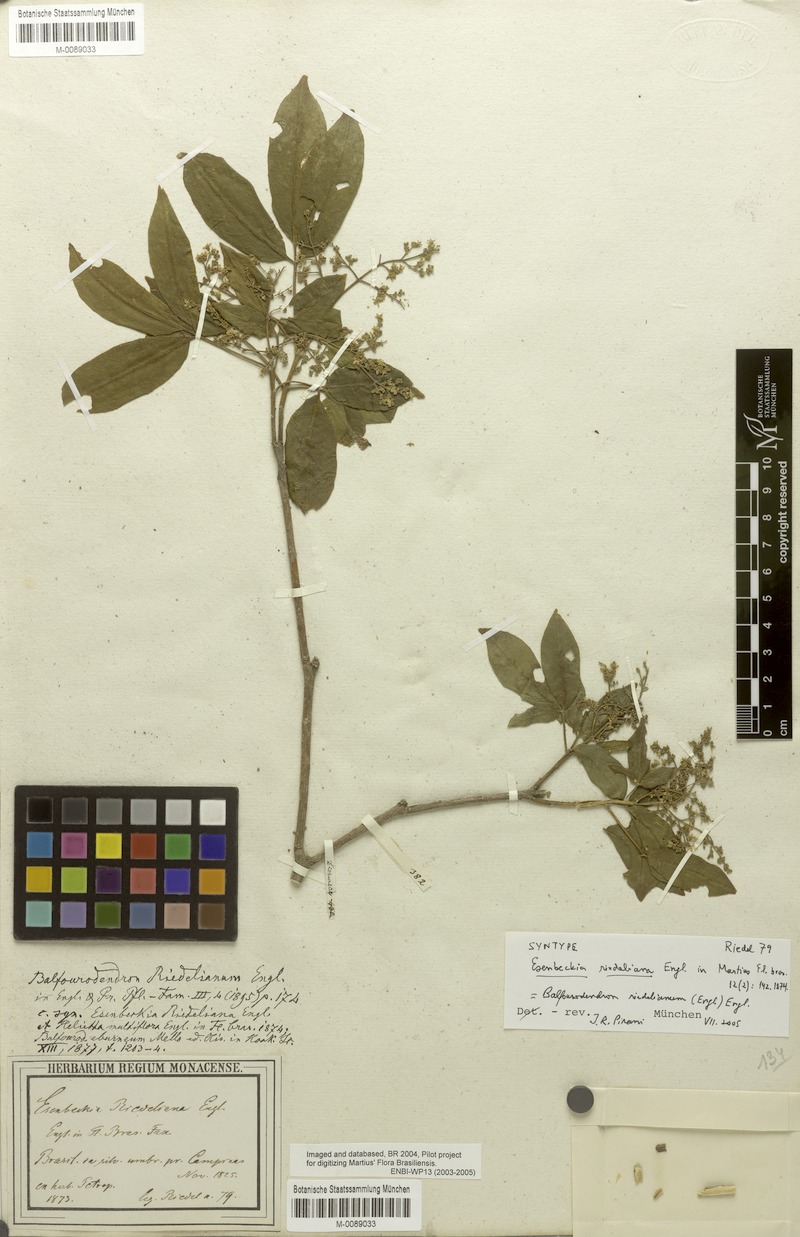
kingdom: Plantae
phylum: Tracheophyta
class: Magnoliopsida
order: Sapindales
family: Rutaceae
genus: Balfourodendron
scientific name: Balfourodendron riedelianum
